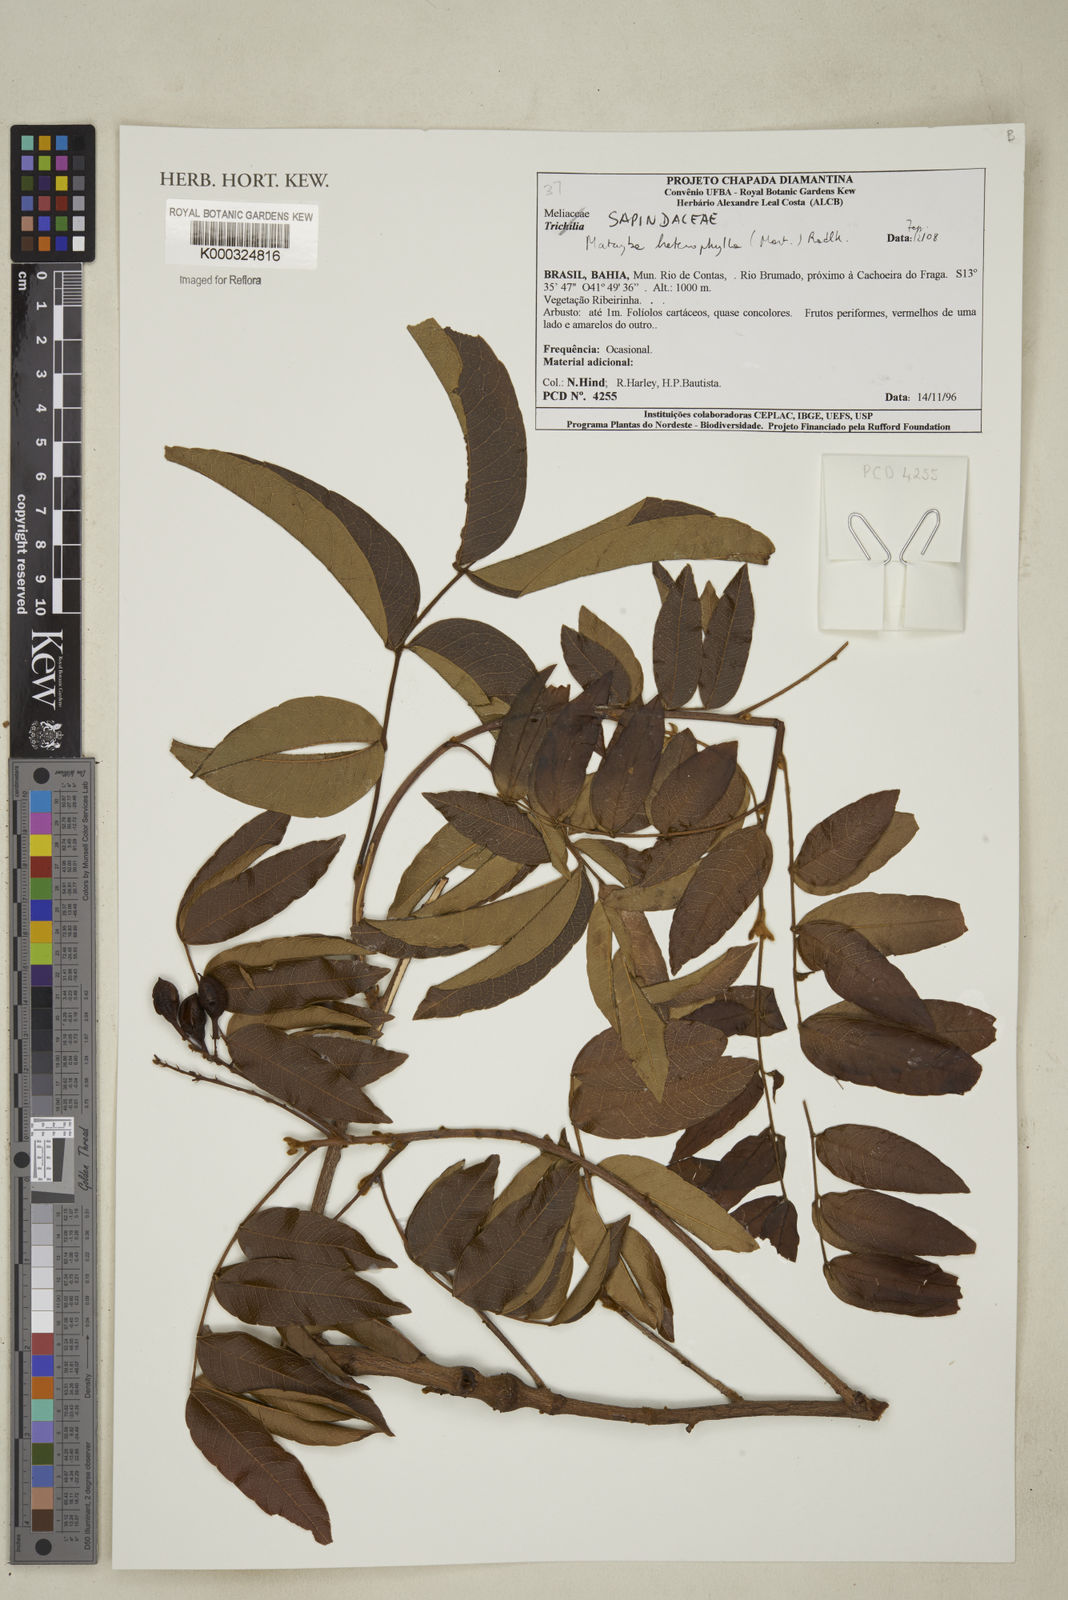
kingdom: Plantae
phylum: Tracheophyta
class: Magnoliopsida
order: Sapindales
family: Sapindaceae
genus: Matayba
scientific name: Matayba heterophylla
